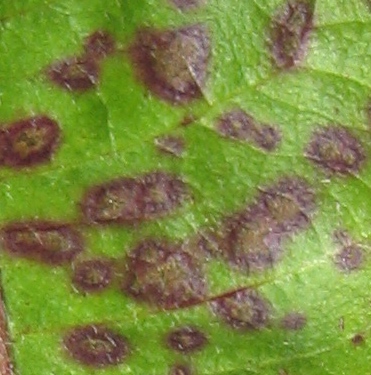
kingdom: Fungi
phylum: Ascomycota
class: Dothideomycetes
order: Capnodiales
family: Mycosphaerellaceae
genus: Ramularia
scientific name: Ramularia
